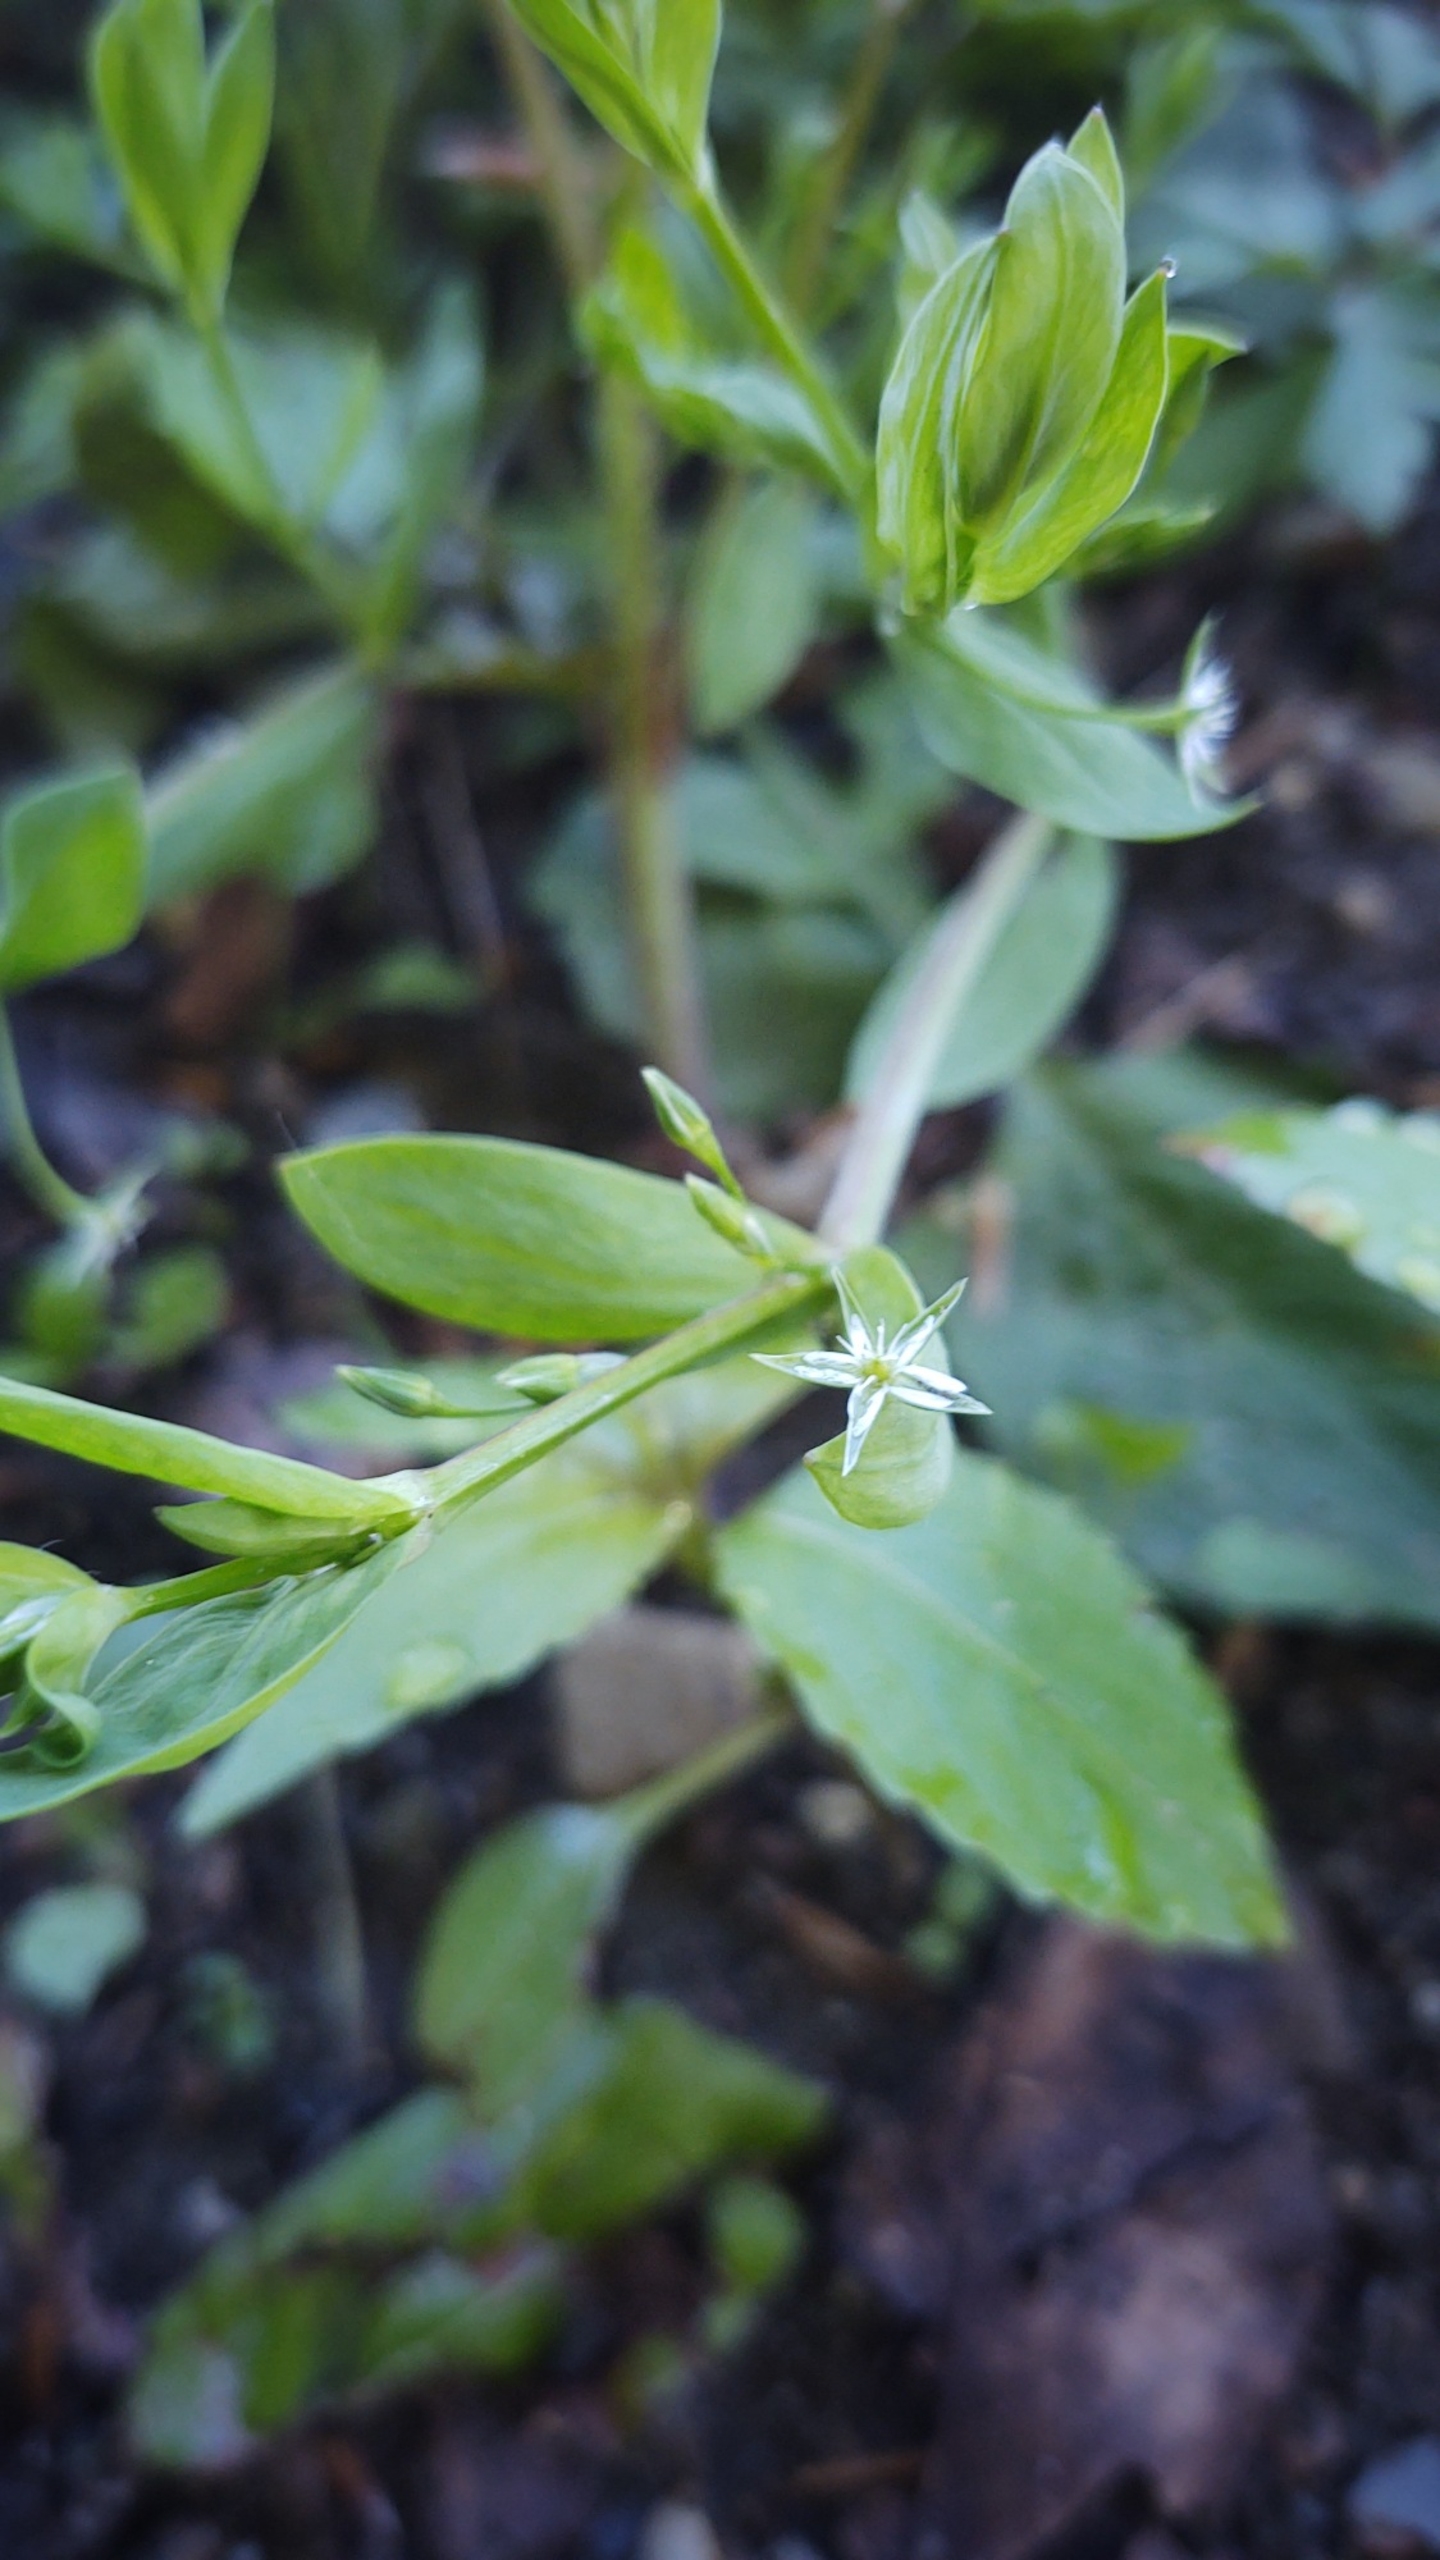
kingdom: Plantae
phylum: Tracheophyta
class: Magnoliopsida
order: Caryophyllales
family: Caryophyllaceae
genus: Stellaria
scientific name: Stellaria alsine
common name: Sump-fladstjerne
